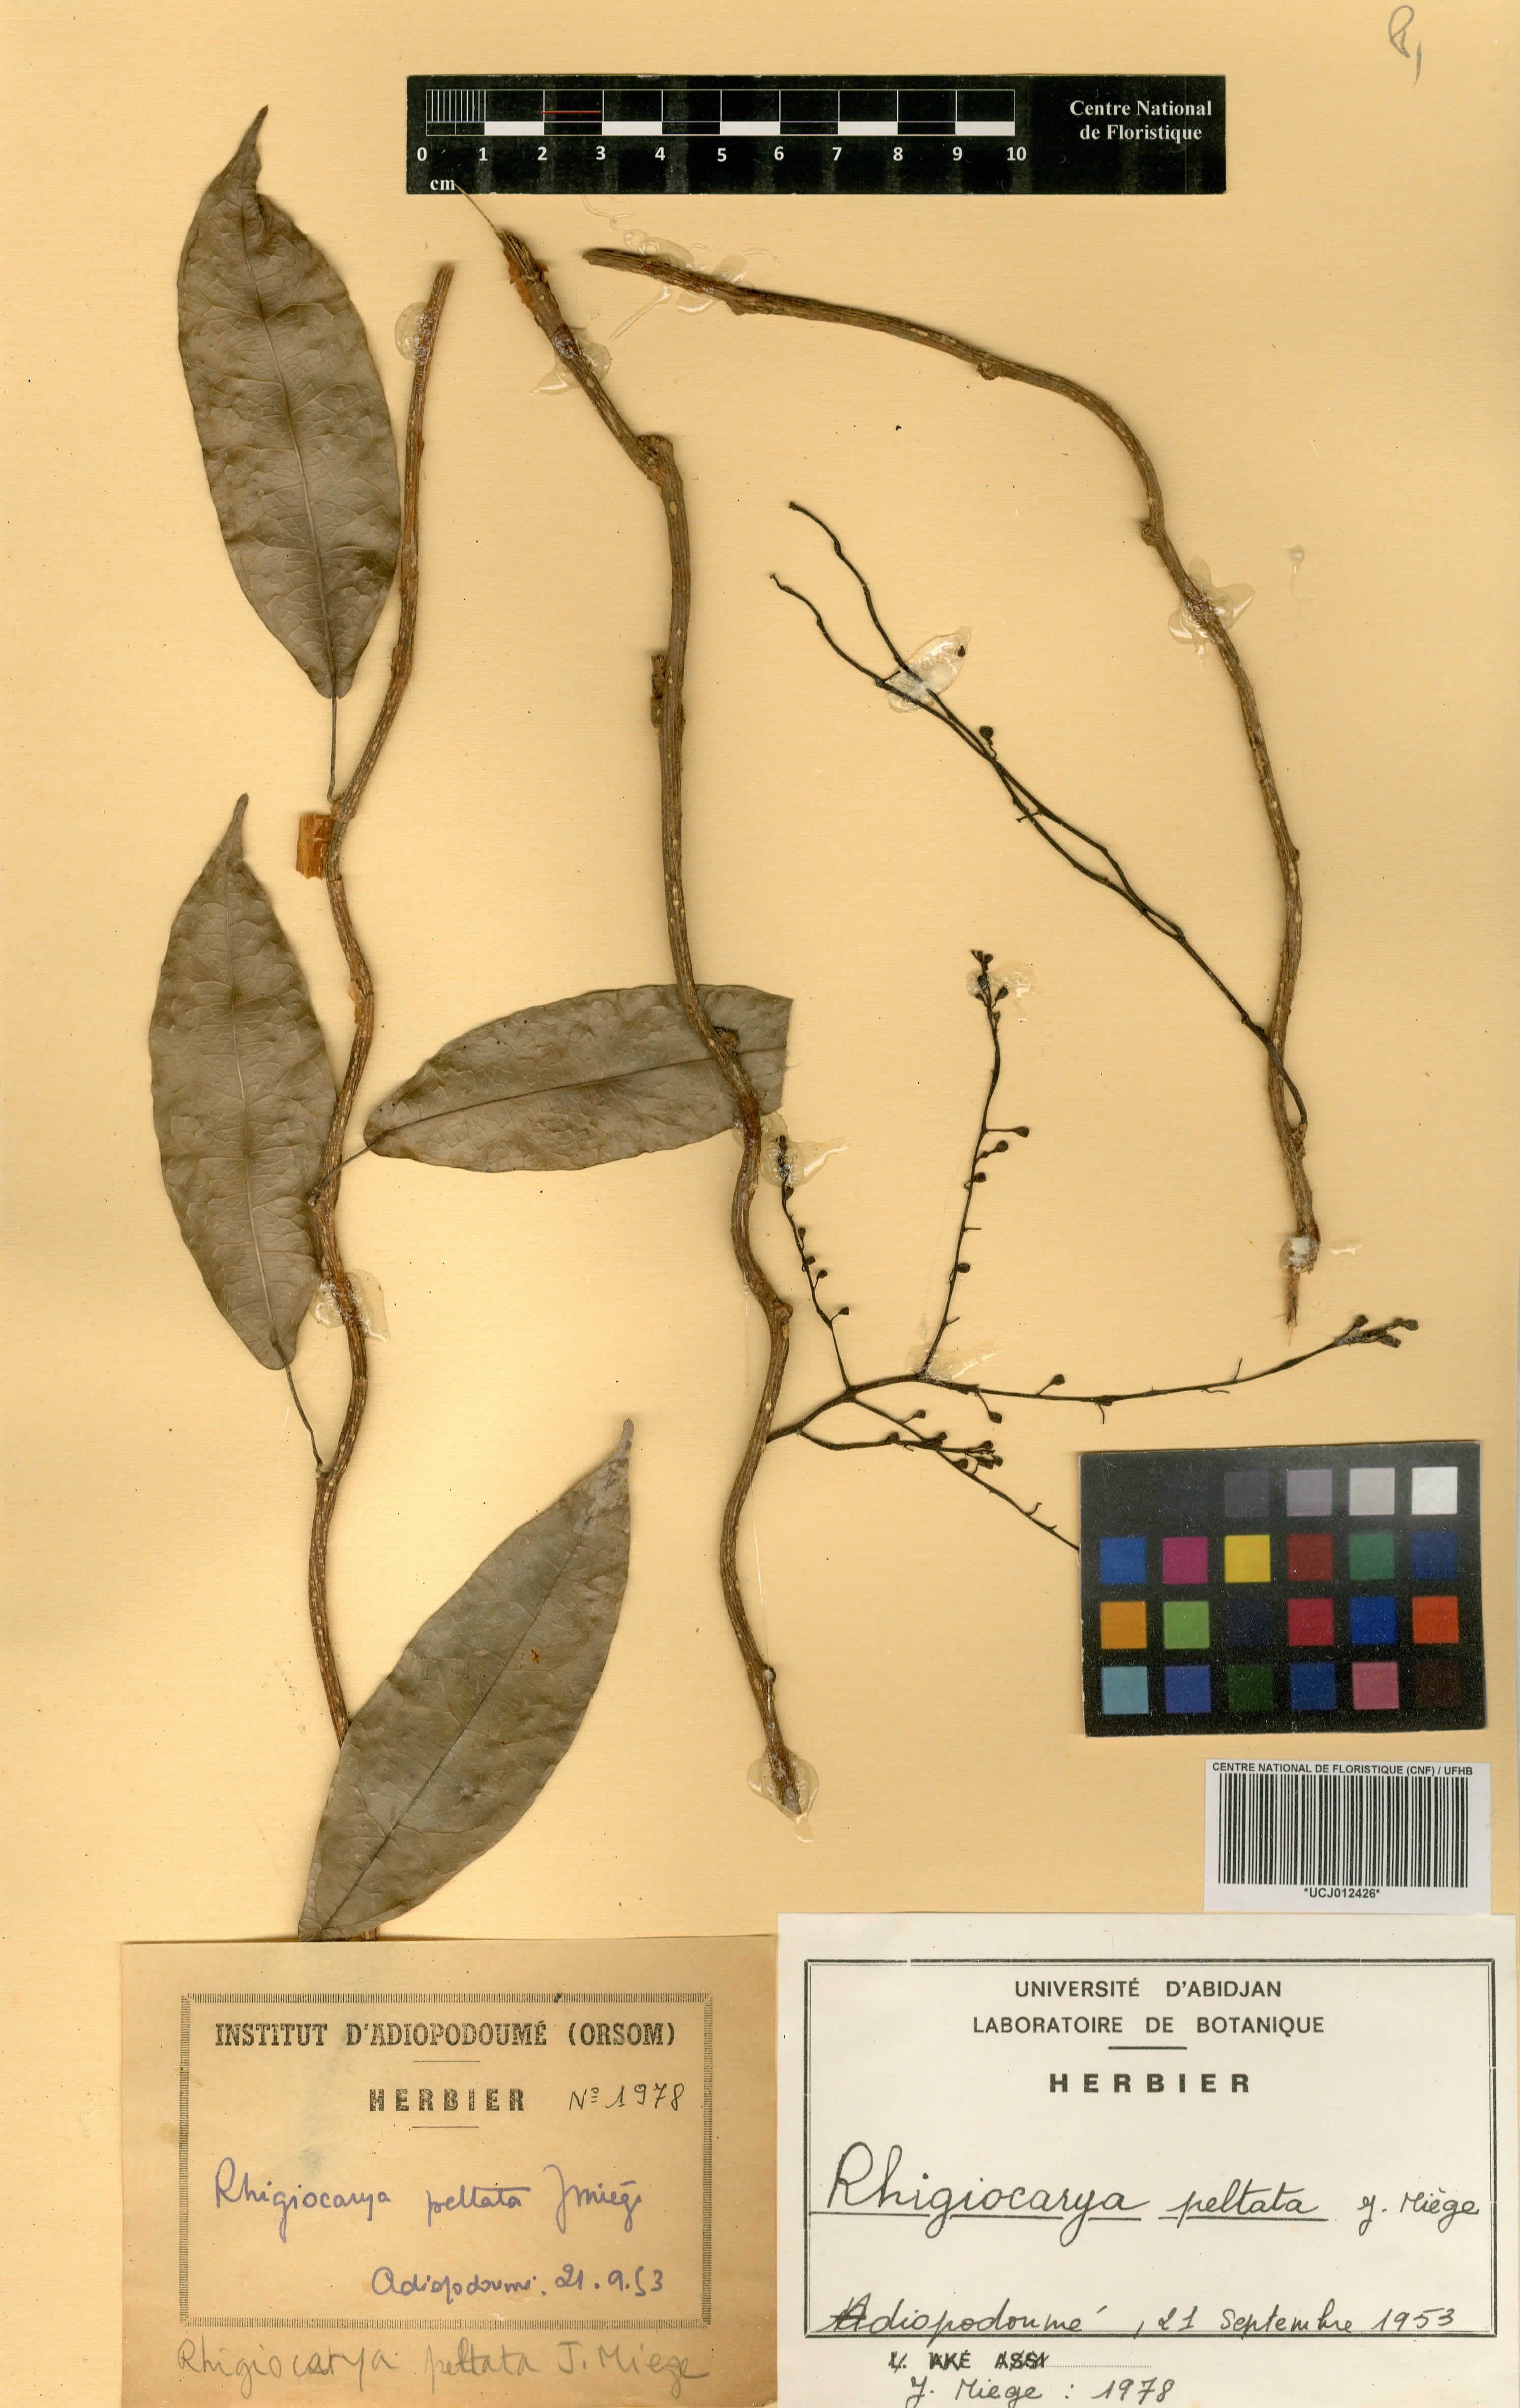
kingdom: Plantae
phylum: Tracheophyta
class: Magnoliopsida
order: Ranunculales
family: Menispermaceae
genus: Rhigiocarya
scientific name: Rhigiocarya peltata
